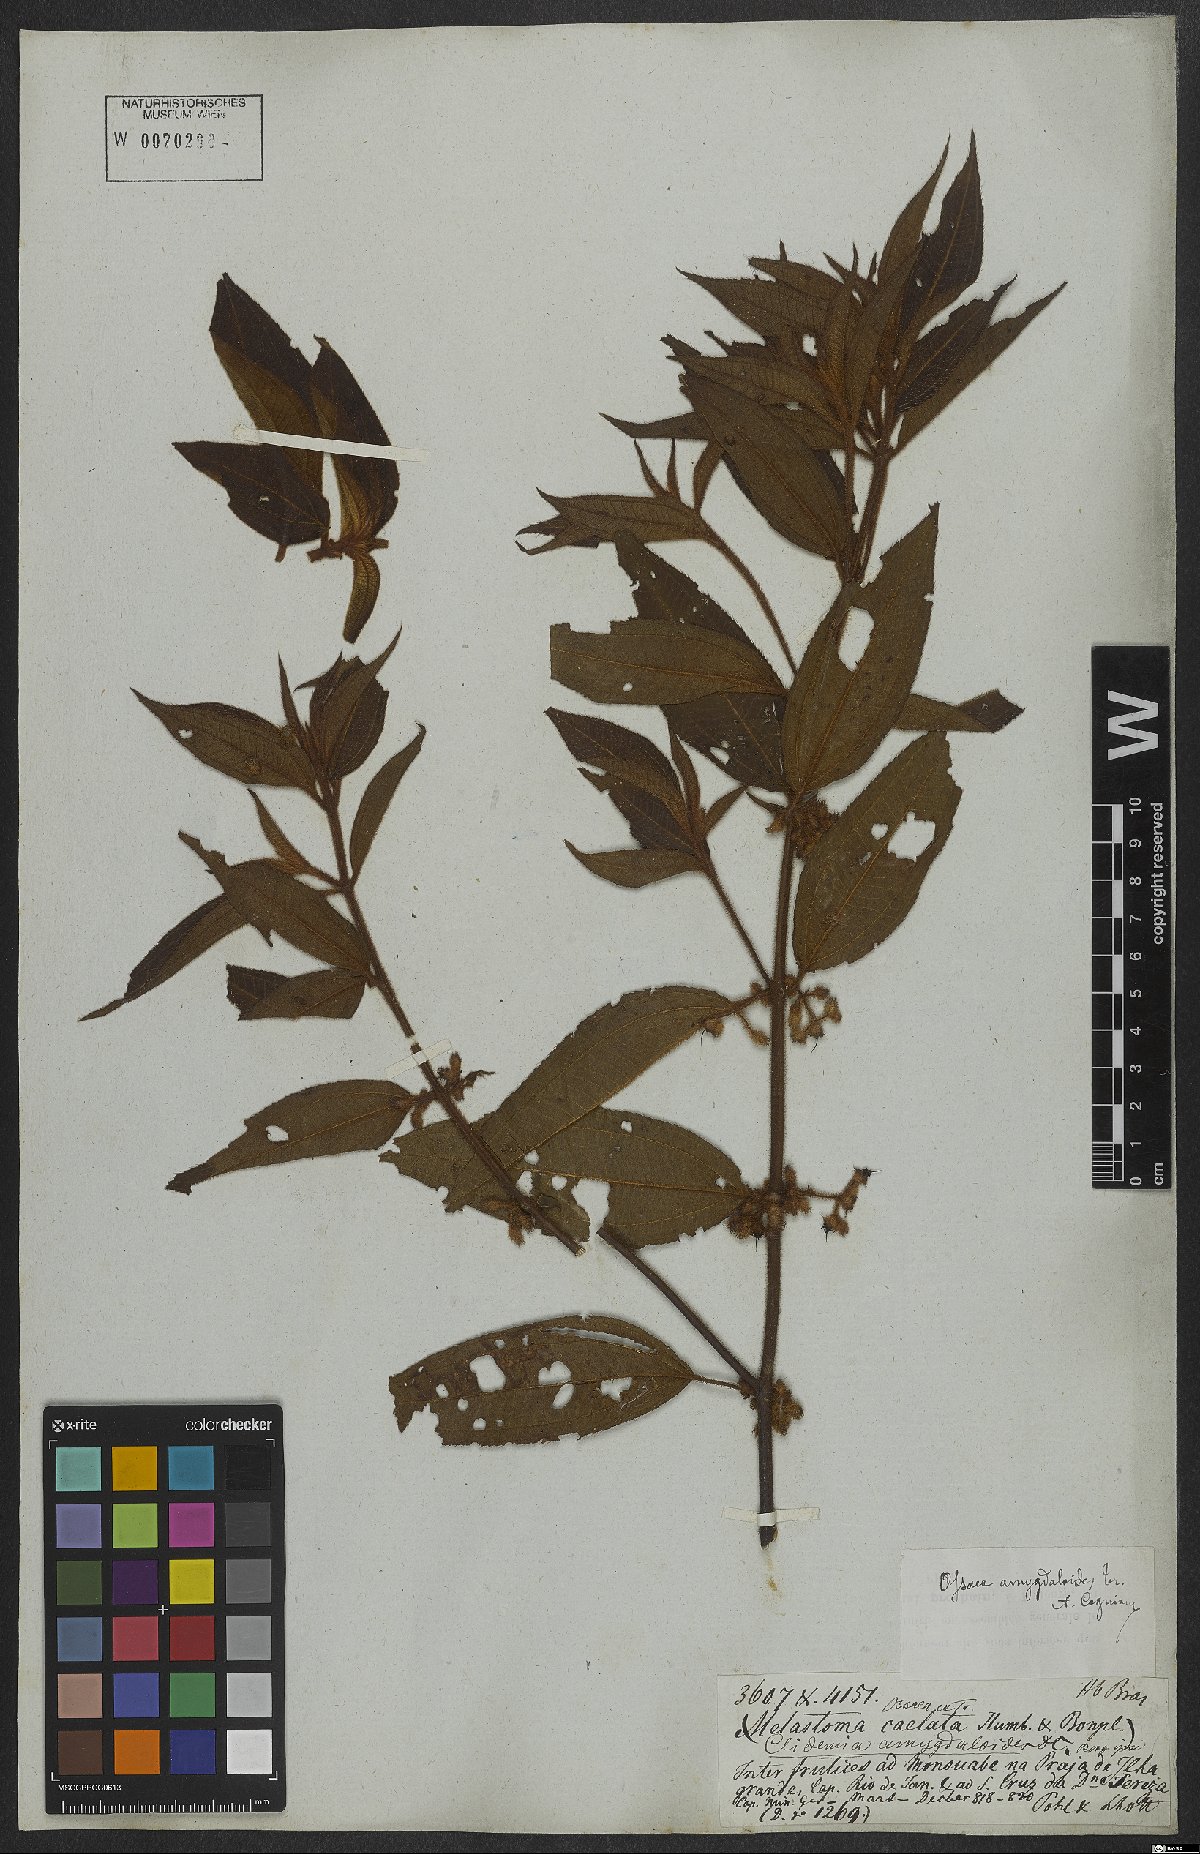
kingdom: Plantae
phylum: Tracheophyta
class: Magnoliopsida
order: Myrtales
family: Melastomataceae
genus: Miconia
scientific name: Miconia amygdaloides
